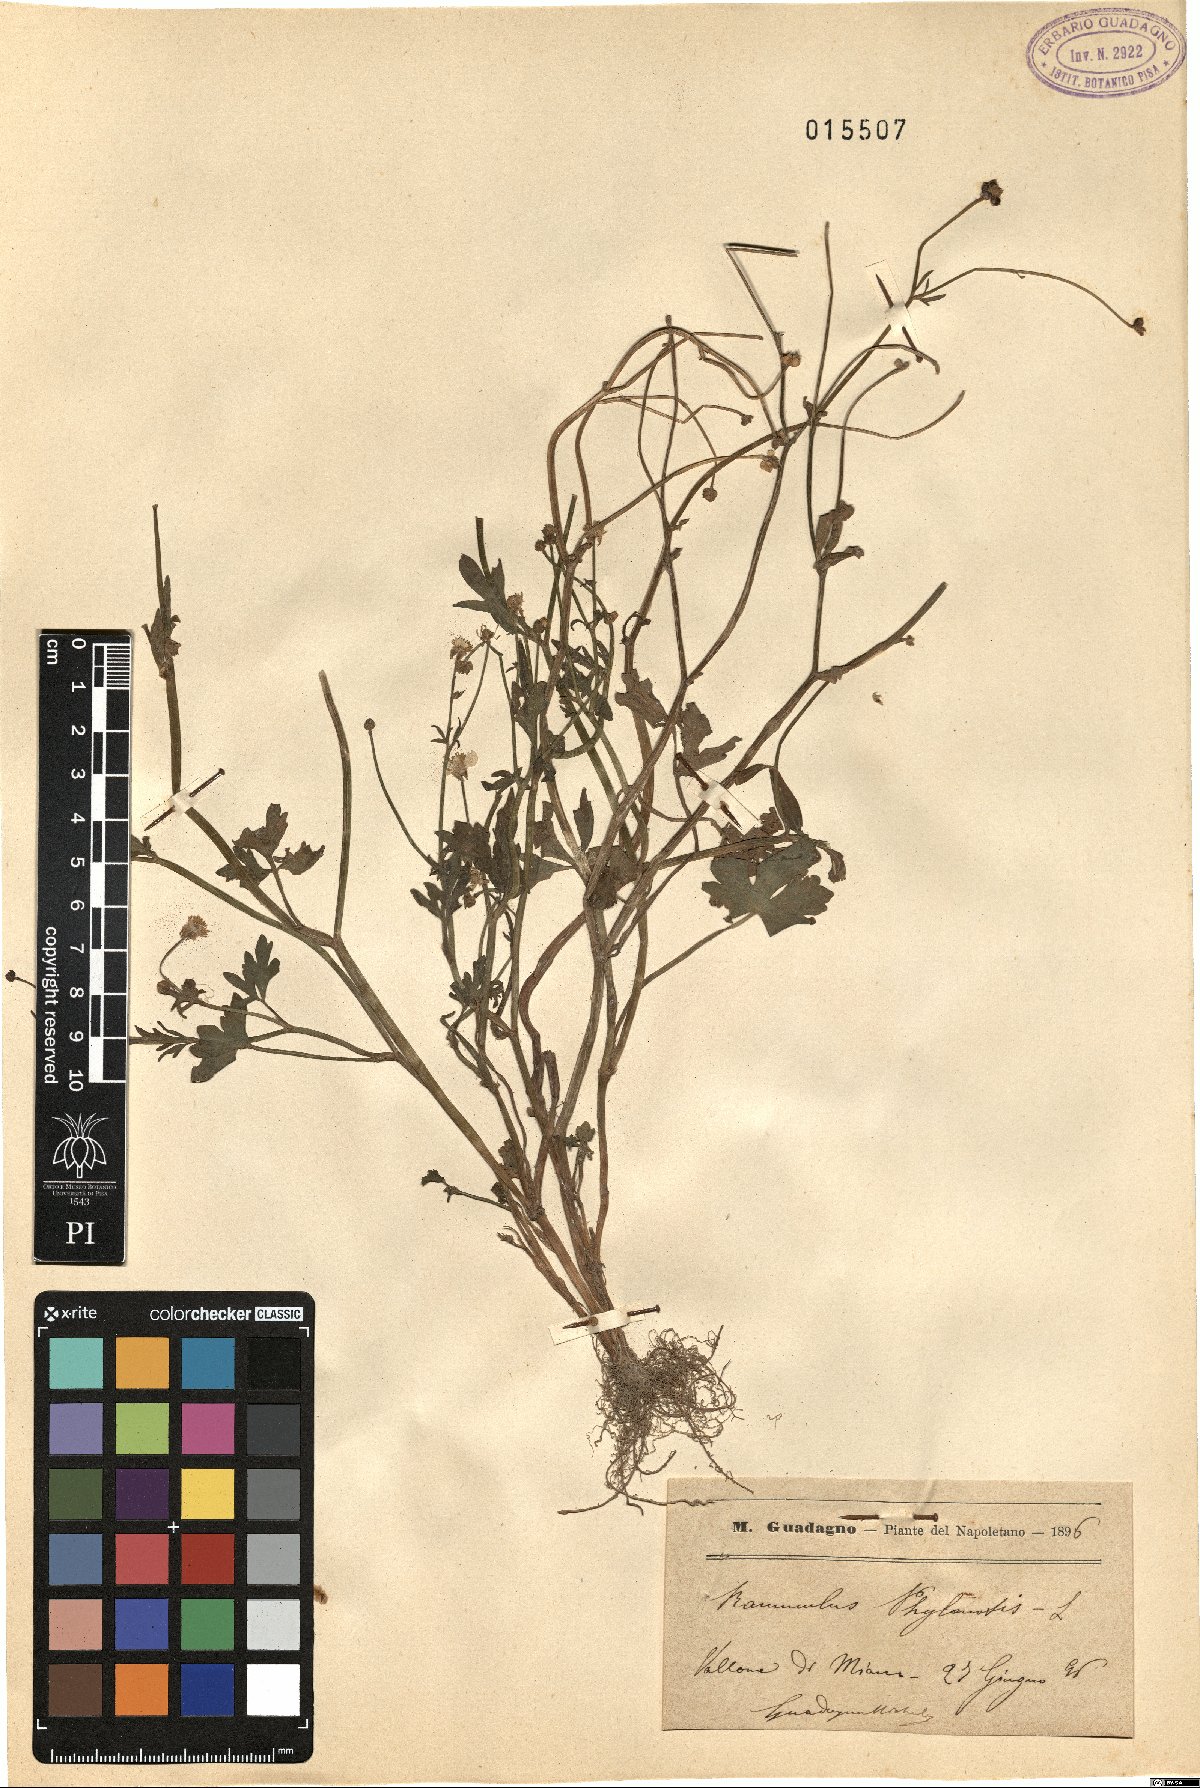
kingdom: Plantae
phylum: Tracheophyta
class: Magnoliopsida
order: Ranunculales
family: Ranunculaceae
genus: Ranunculus
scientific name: Ranunculus sardous
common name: Hairy buttercup
